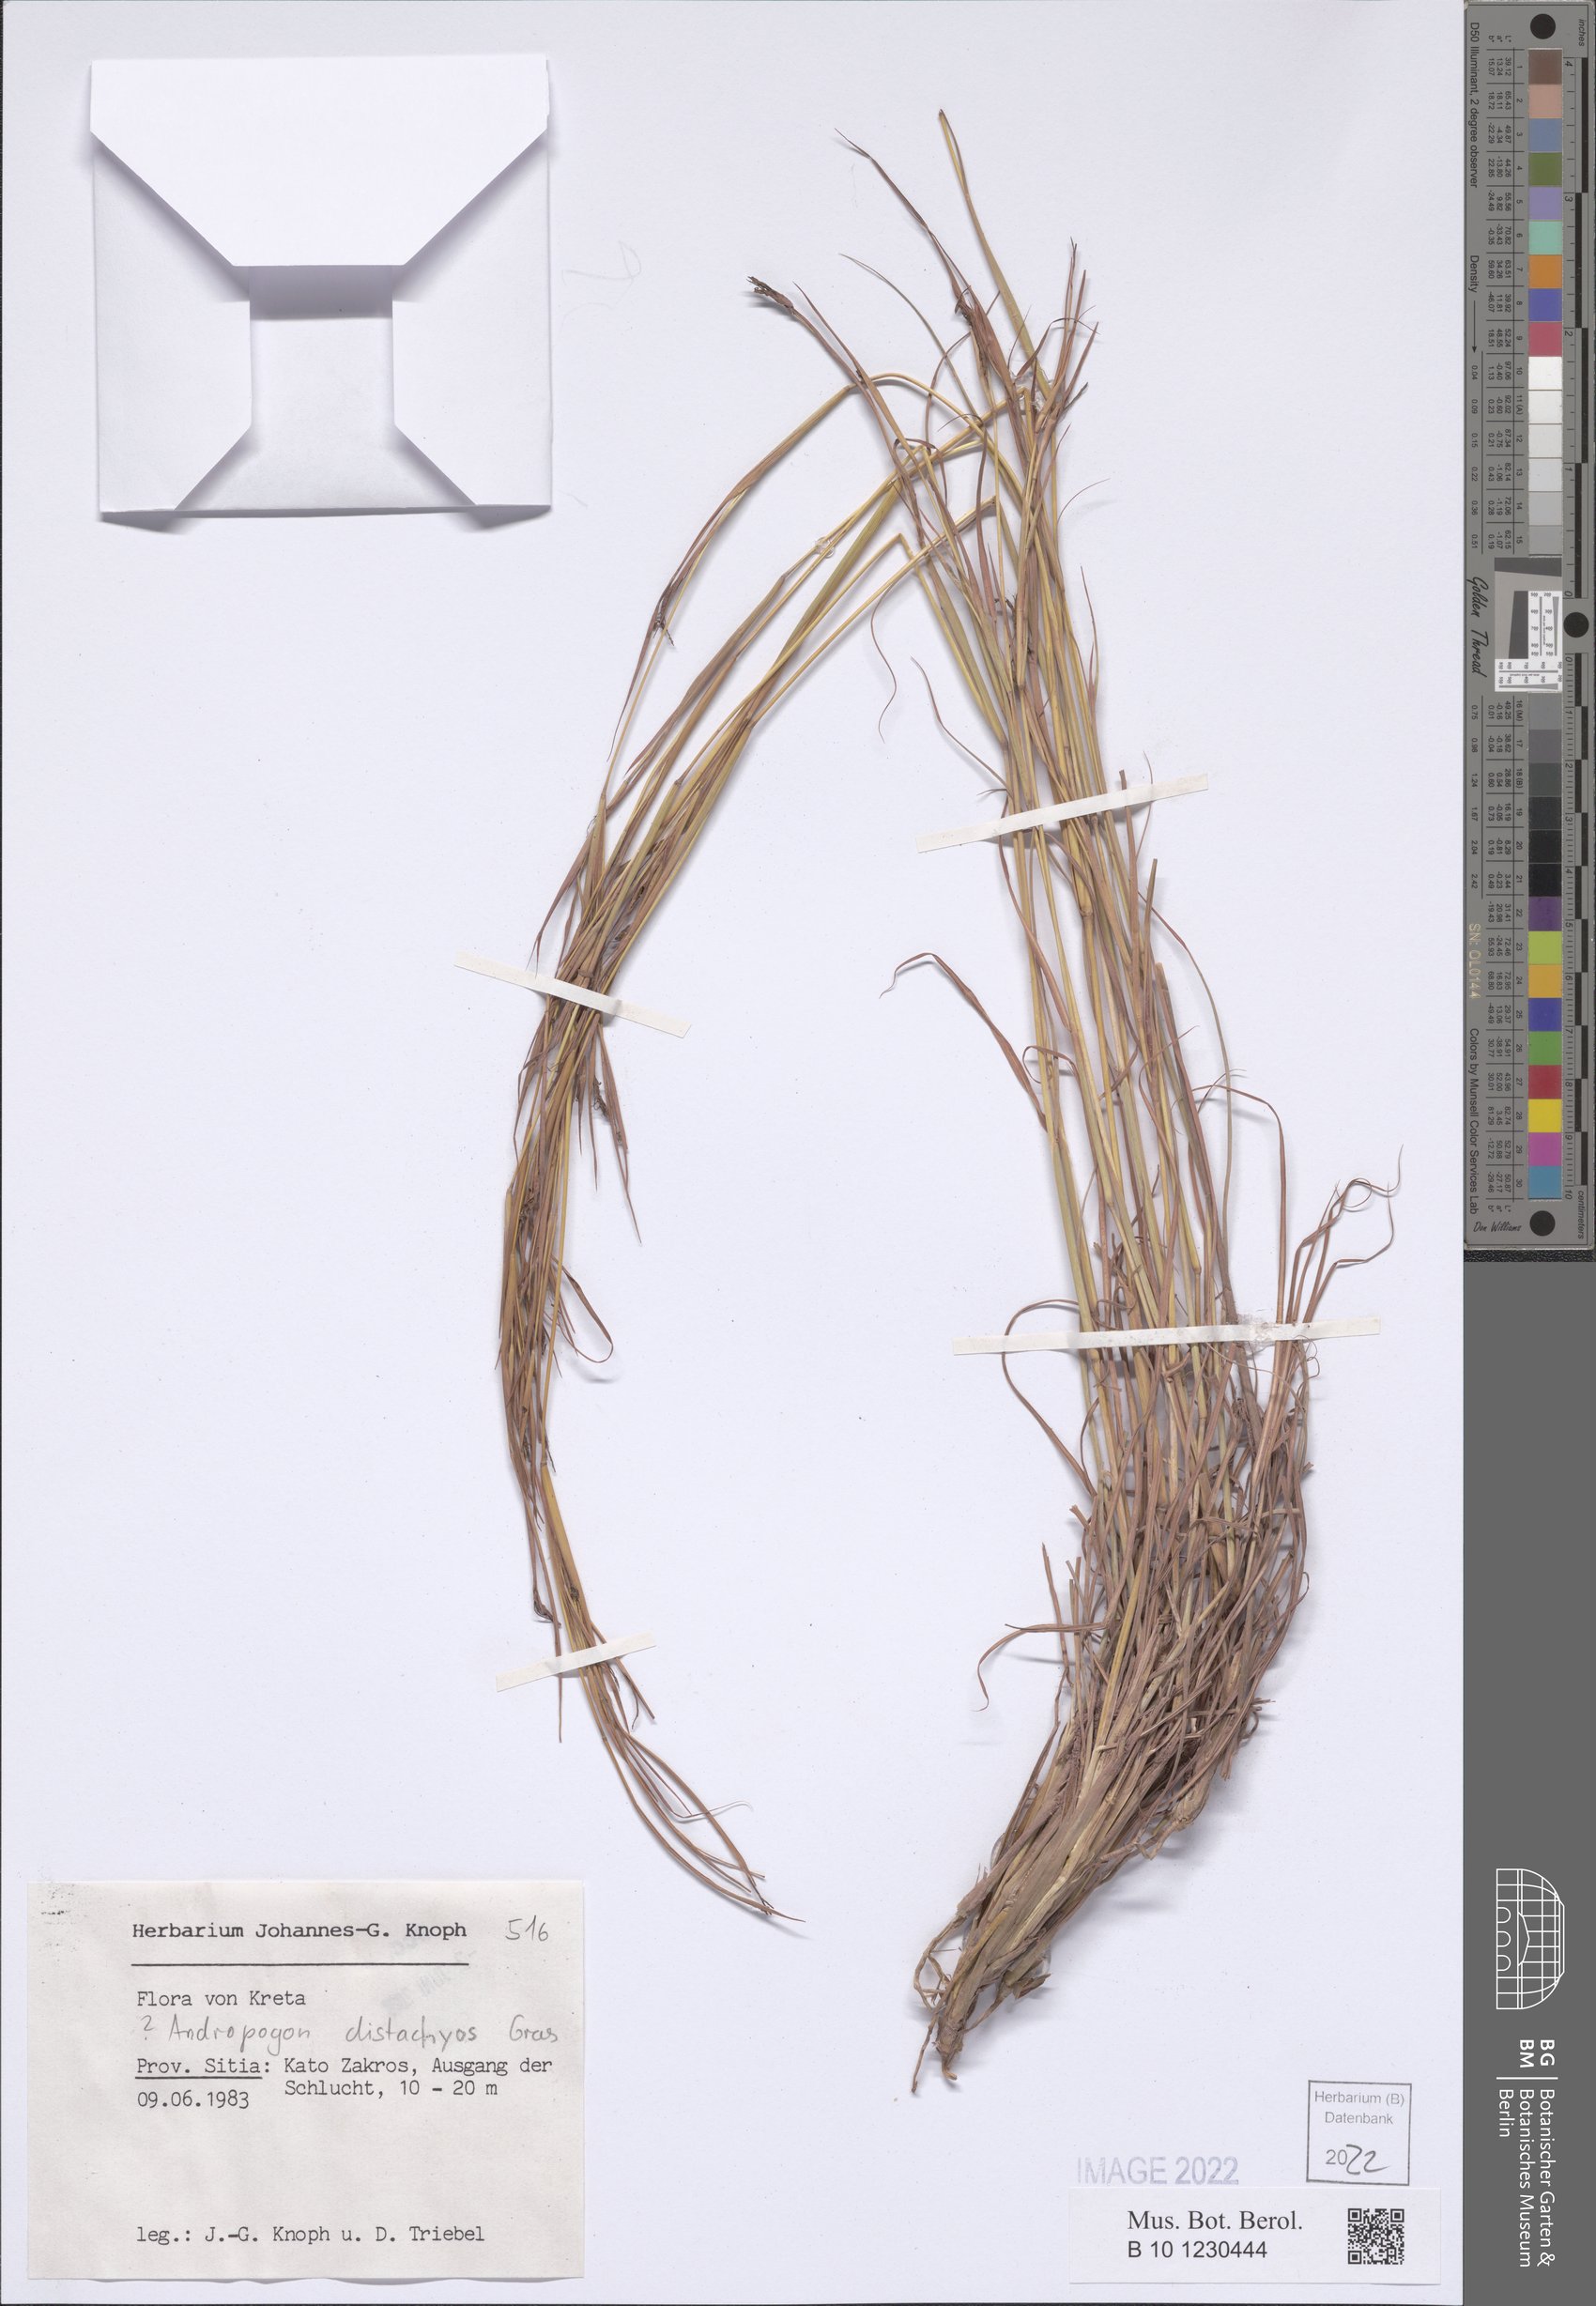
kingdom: Plantae
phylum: Tracheophyta
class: Liliopsida
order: Poales
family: Poaceae
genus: Andropogon
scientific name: Andropogon distachyos
